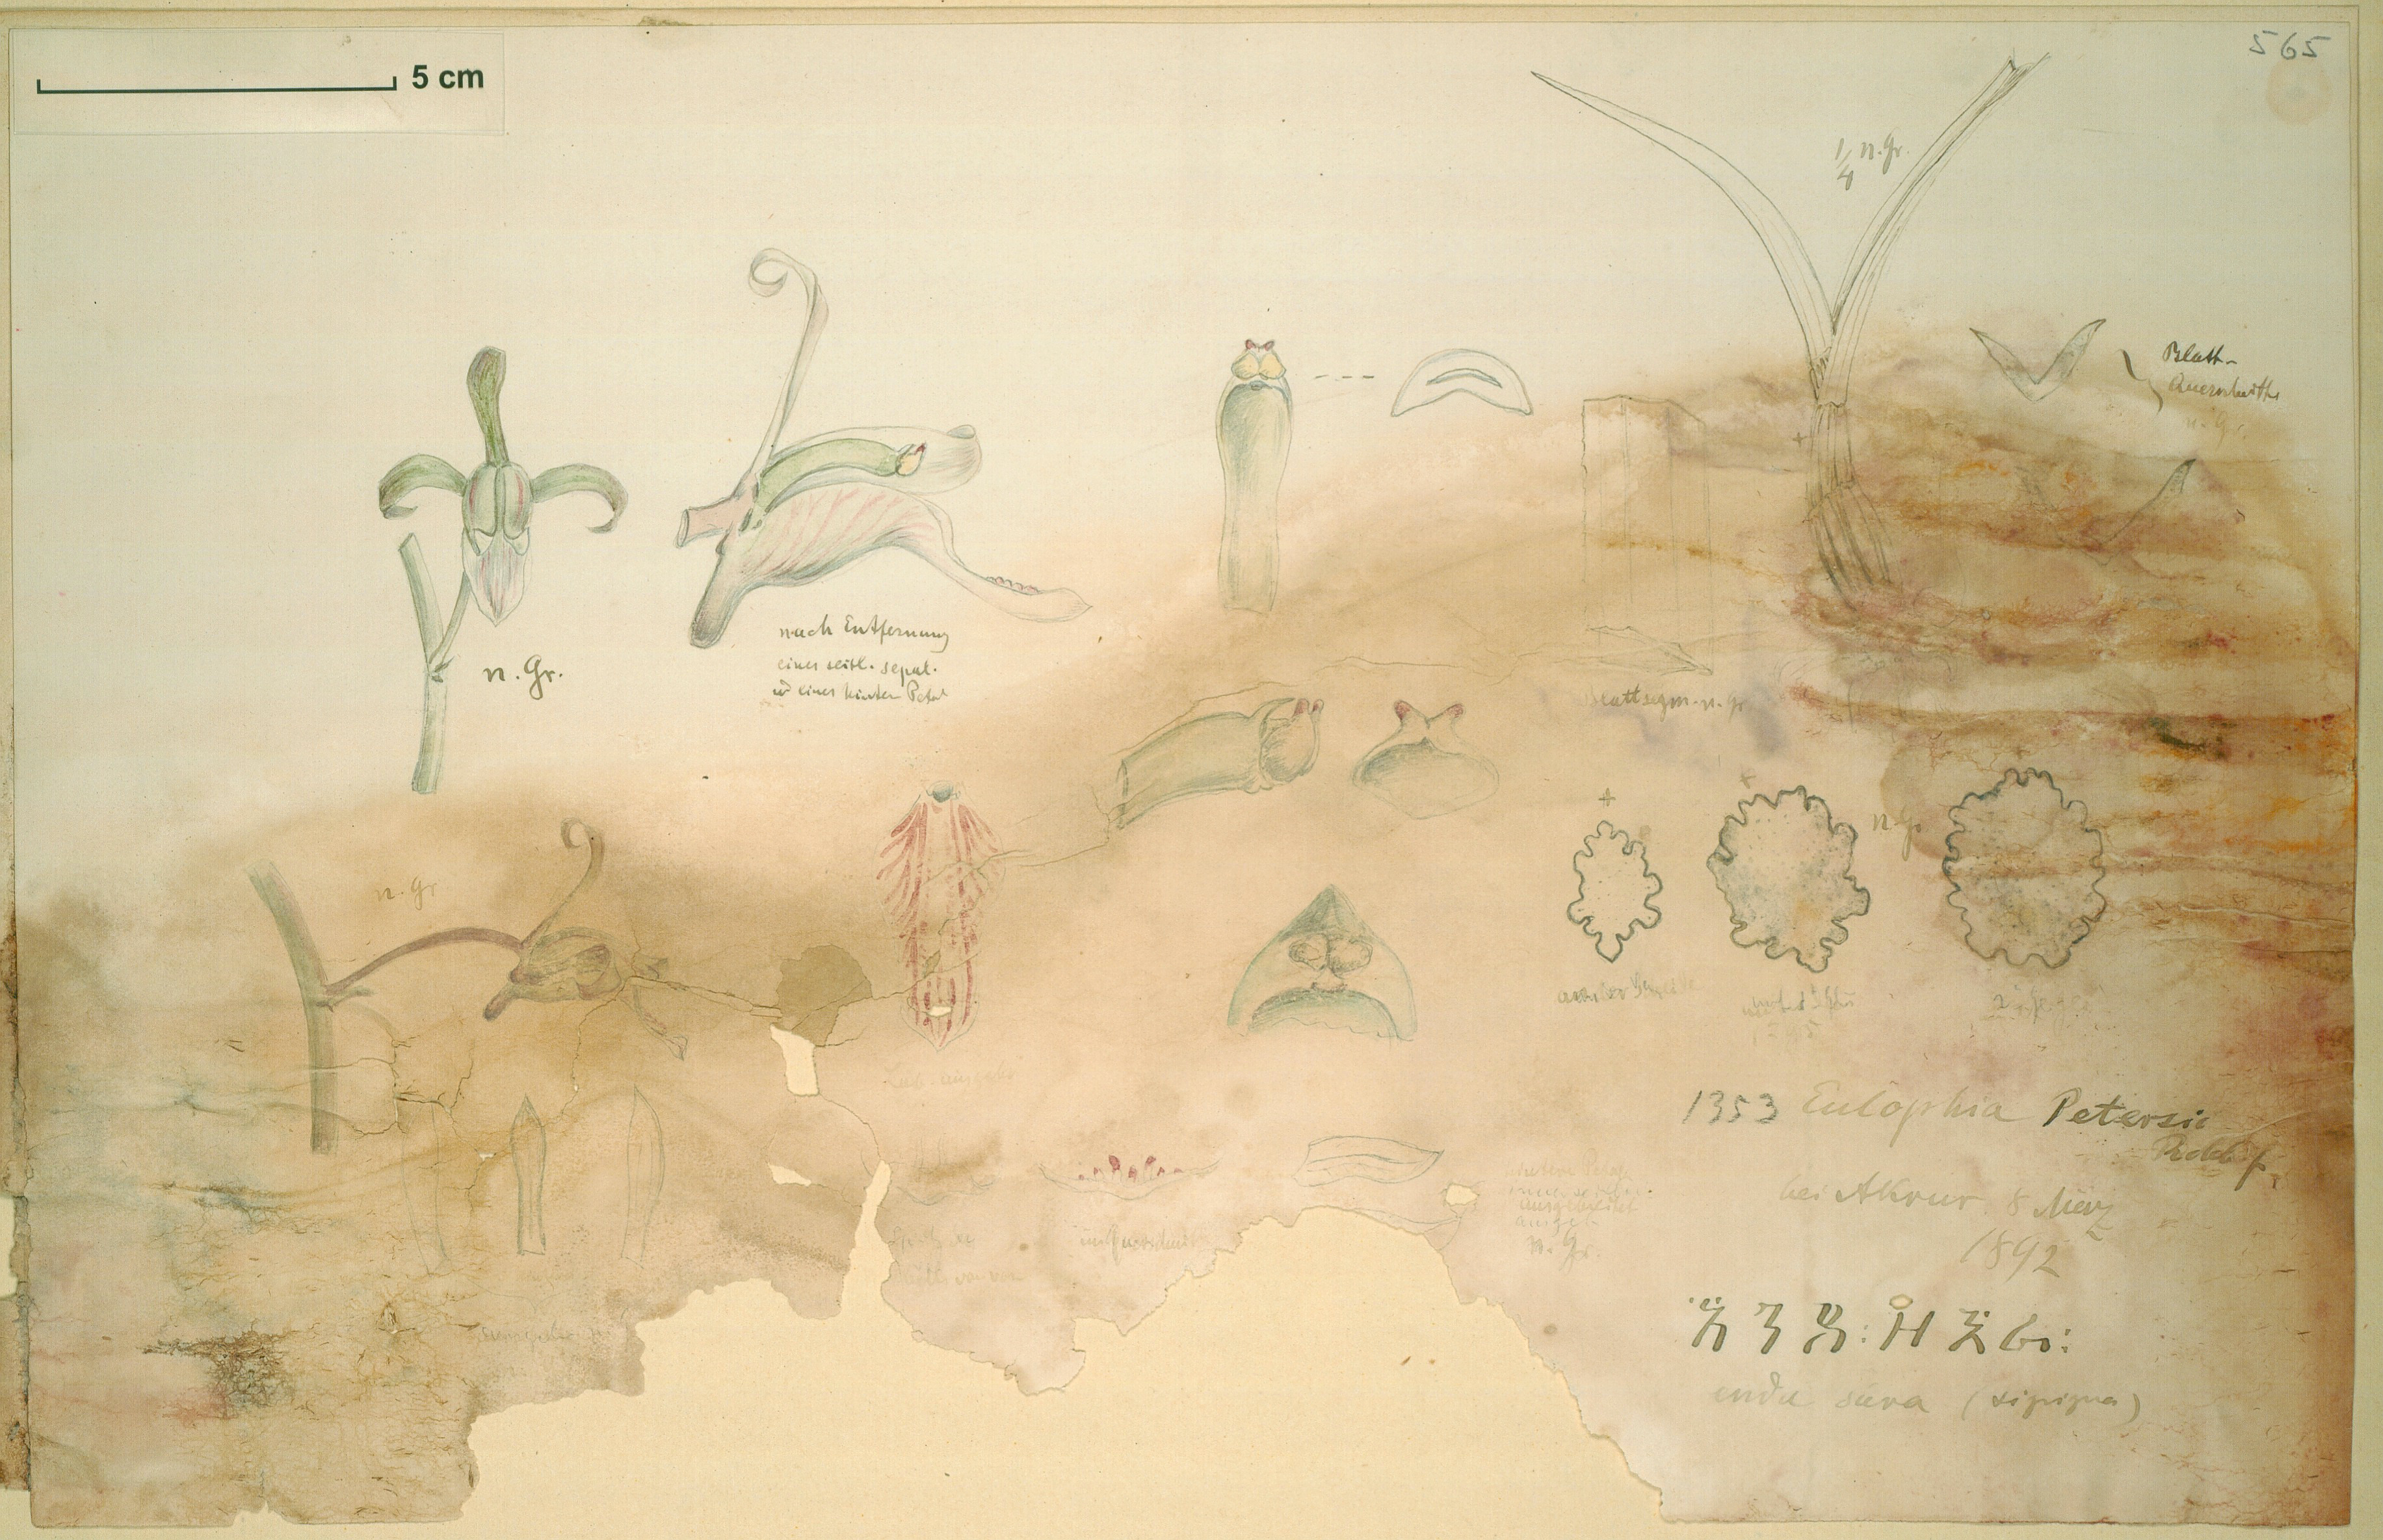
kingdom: Plantae
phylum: Tracheophyta
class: Liliopsida
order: Asparagales
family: Orchidaceae
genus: Eulophia
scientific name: Eulophia petersii
